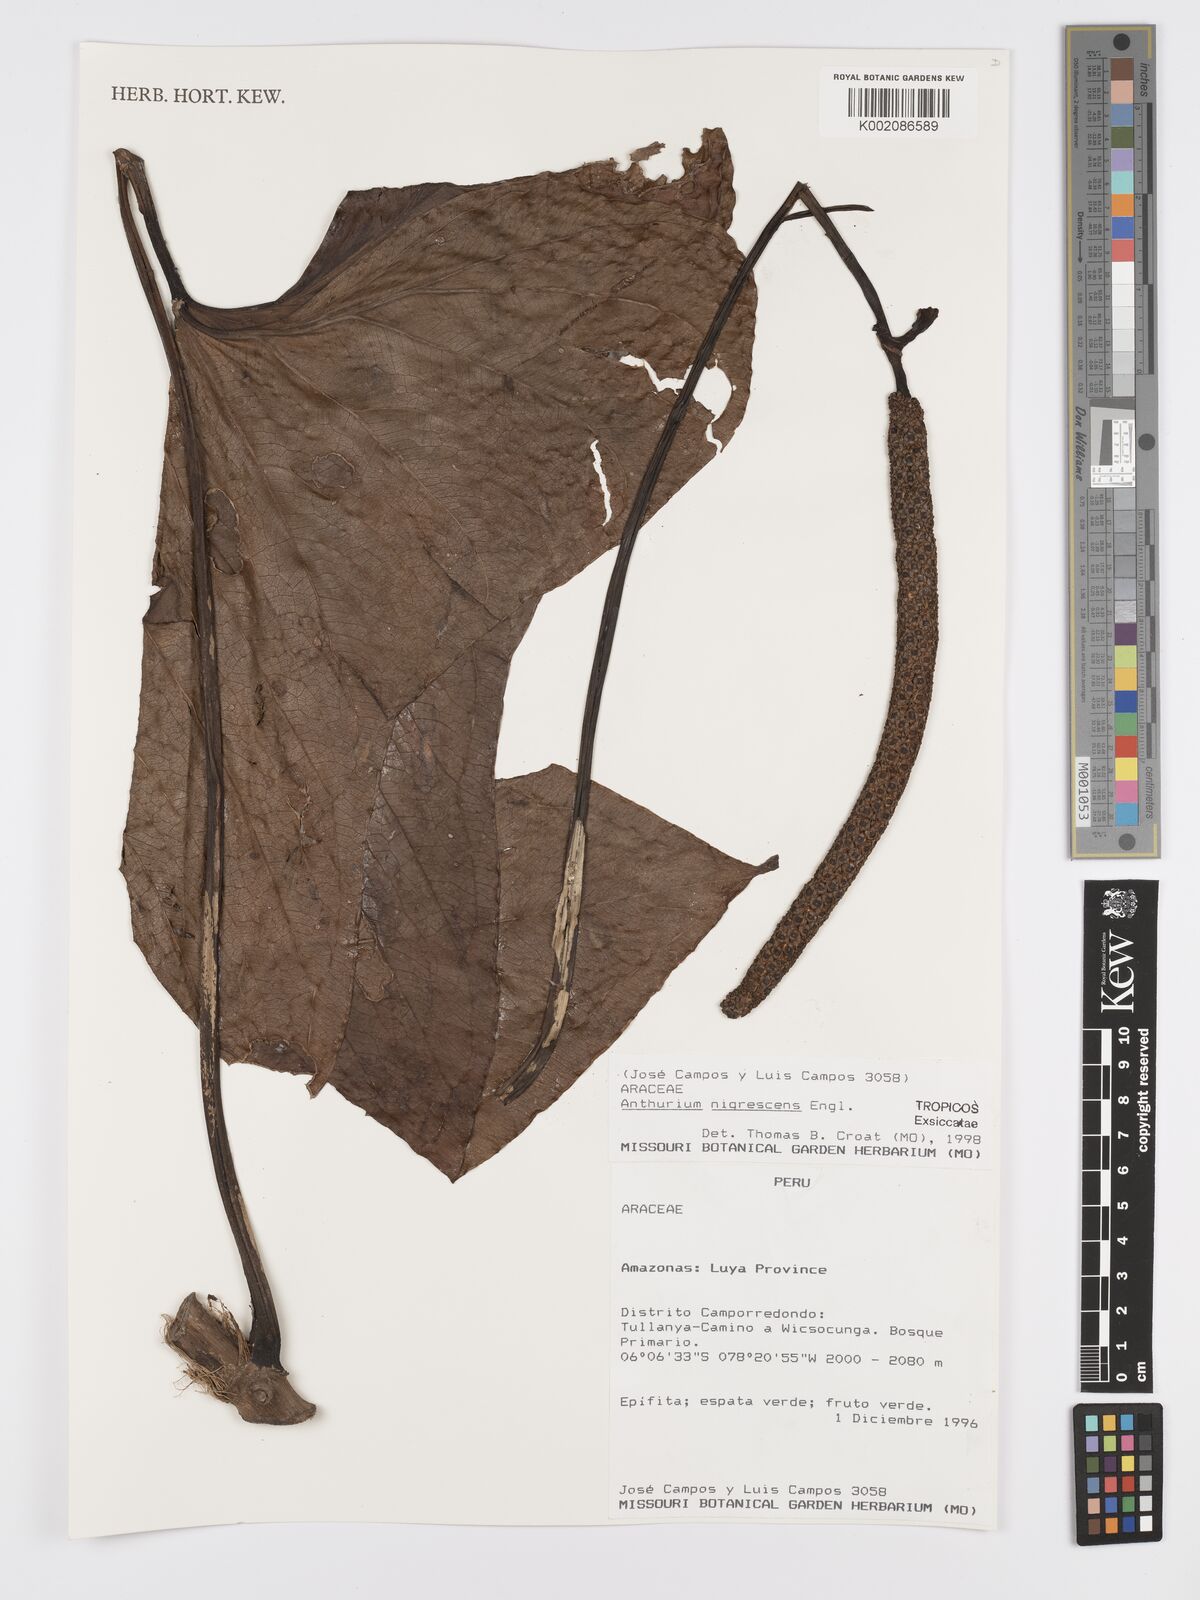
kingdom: Plantae
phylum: Tracheophyta
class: Liliopsida
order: Alismatales
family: Araceae
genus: Anthurium
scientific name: Anthurium nigrescens
